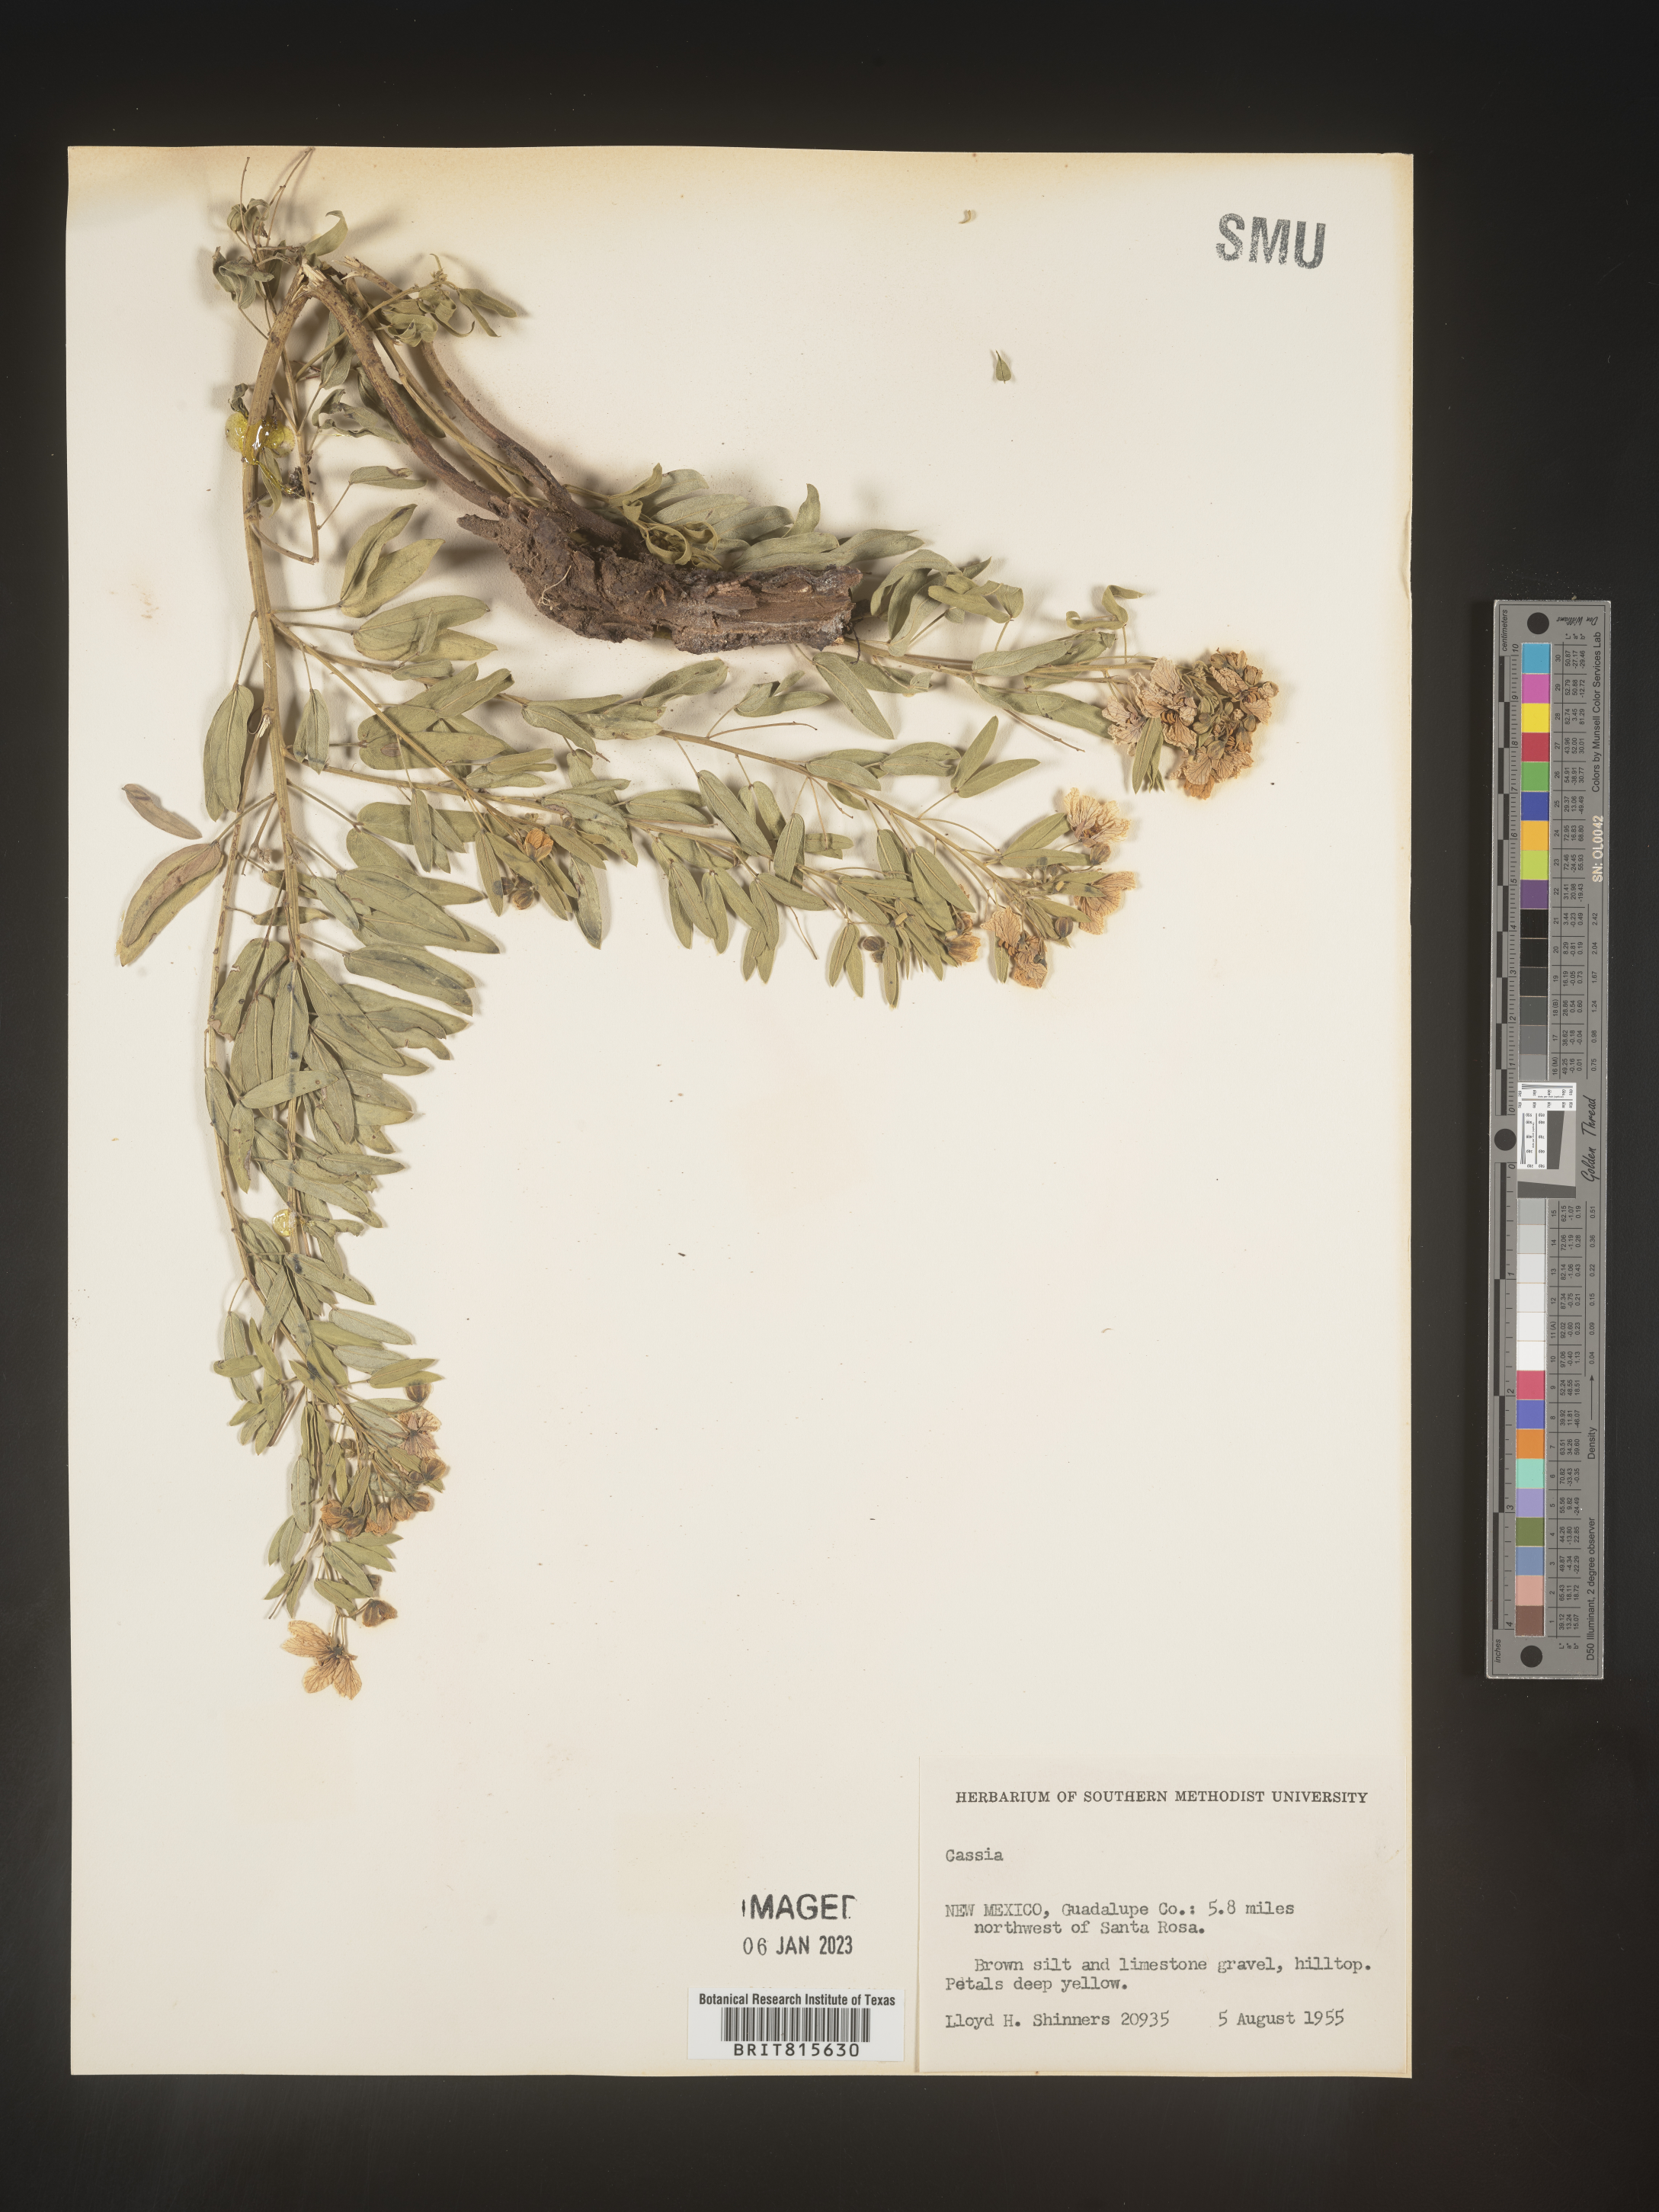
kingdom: Plantae
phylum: Tracheophyta
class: Magnoliopsida
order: Fabales
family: Fabaceae
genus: Cassia
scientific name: Cassia
